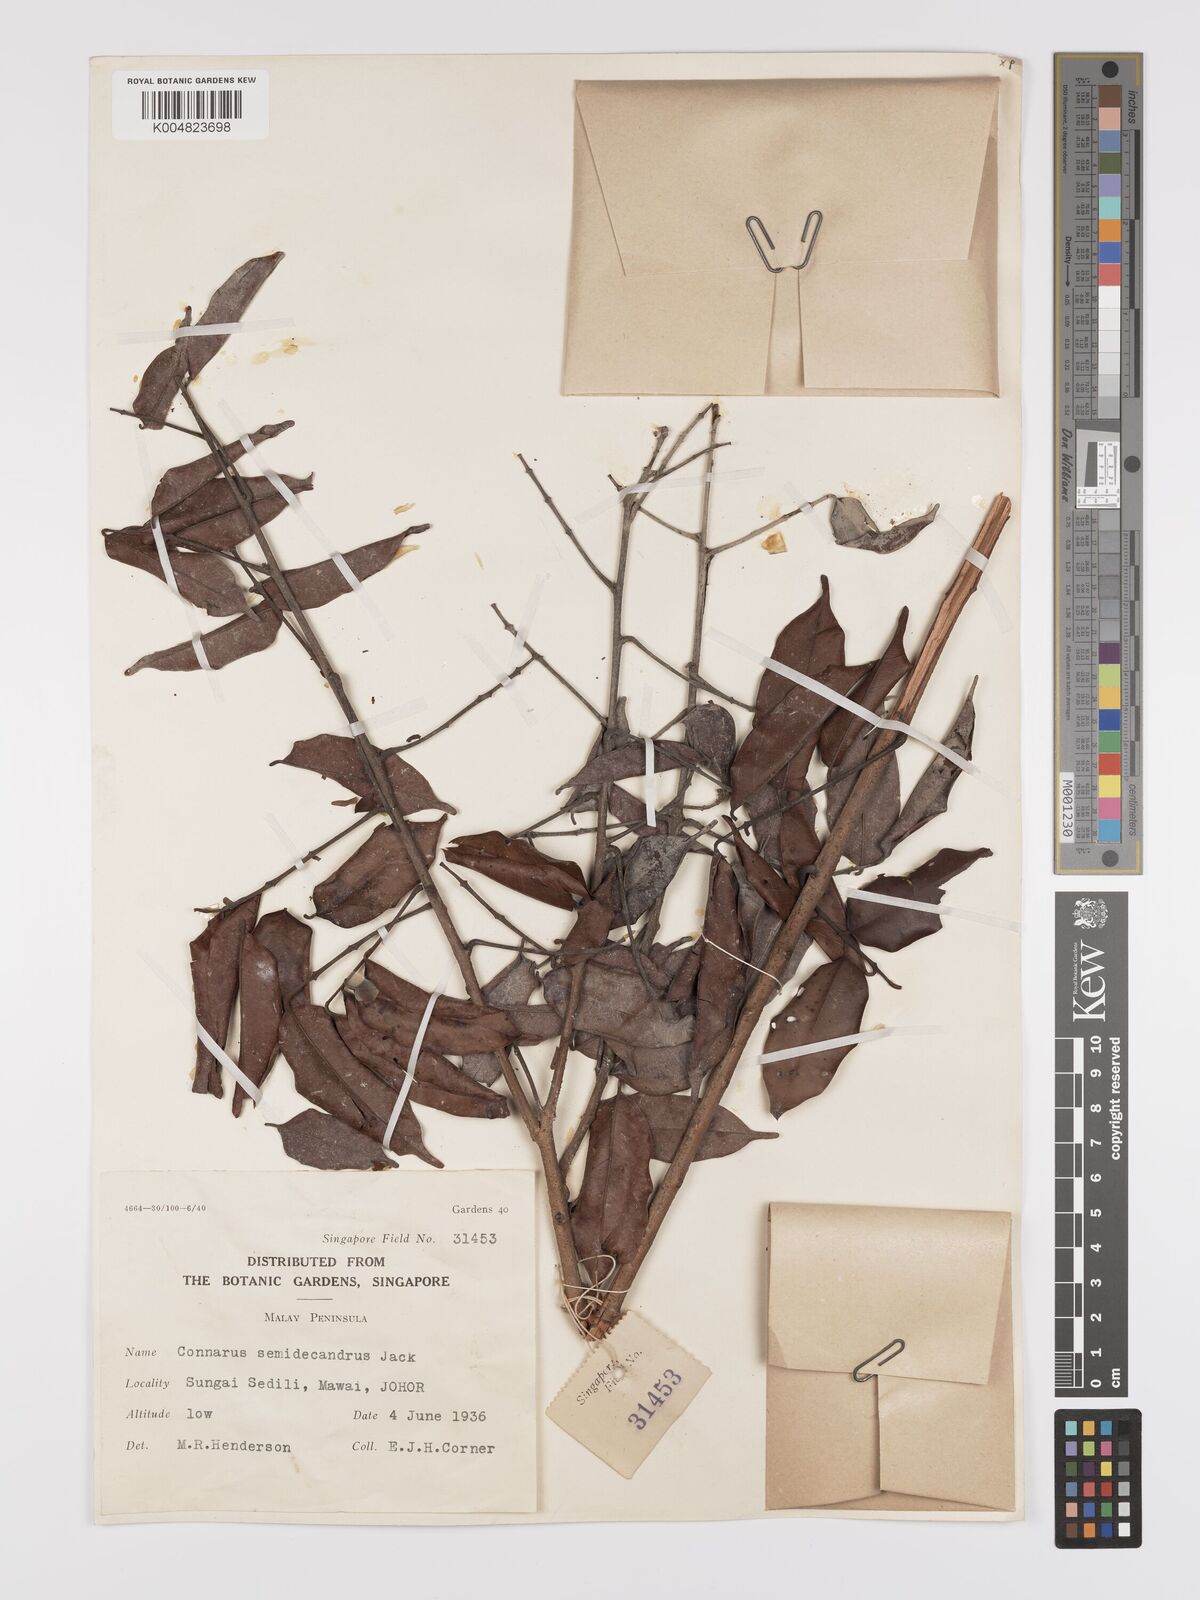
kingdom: Plantae
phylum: Tracheophyta
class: Magnoliopsida
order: Oxalidales
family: Connaraceae
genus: Connarus
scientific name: Connarus semidecandrus
